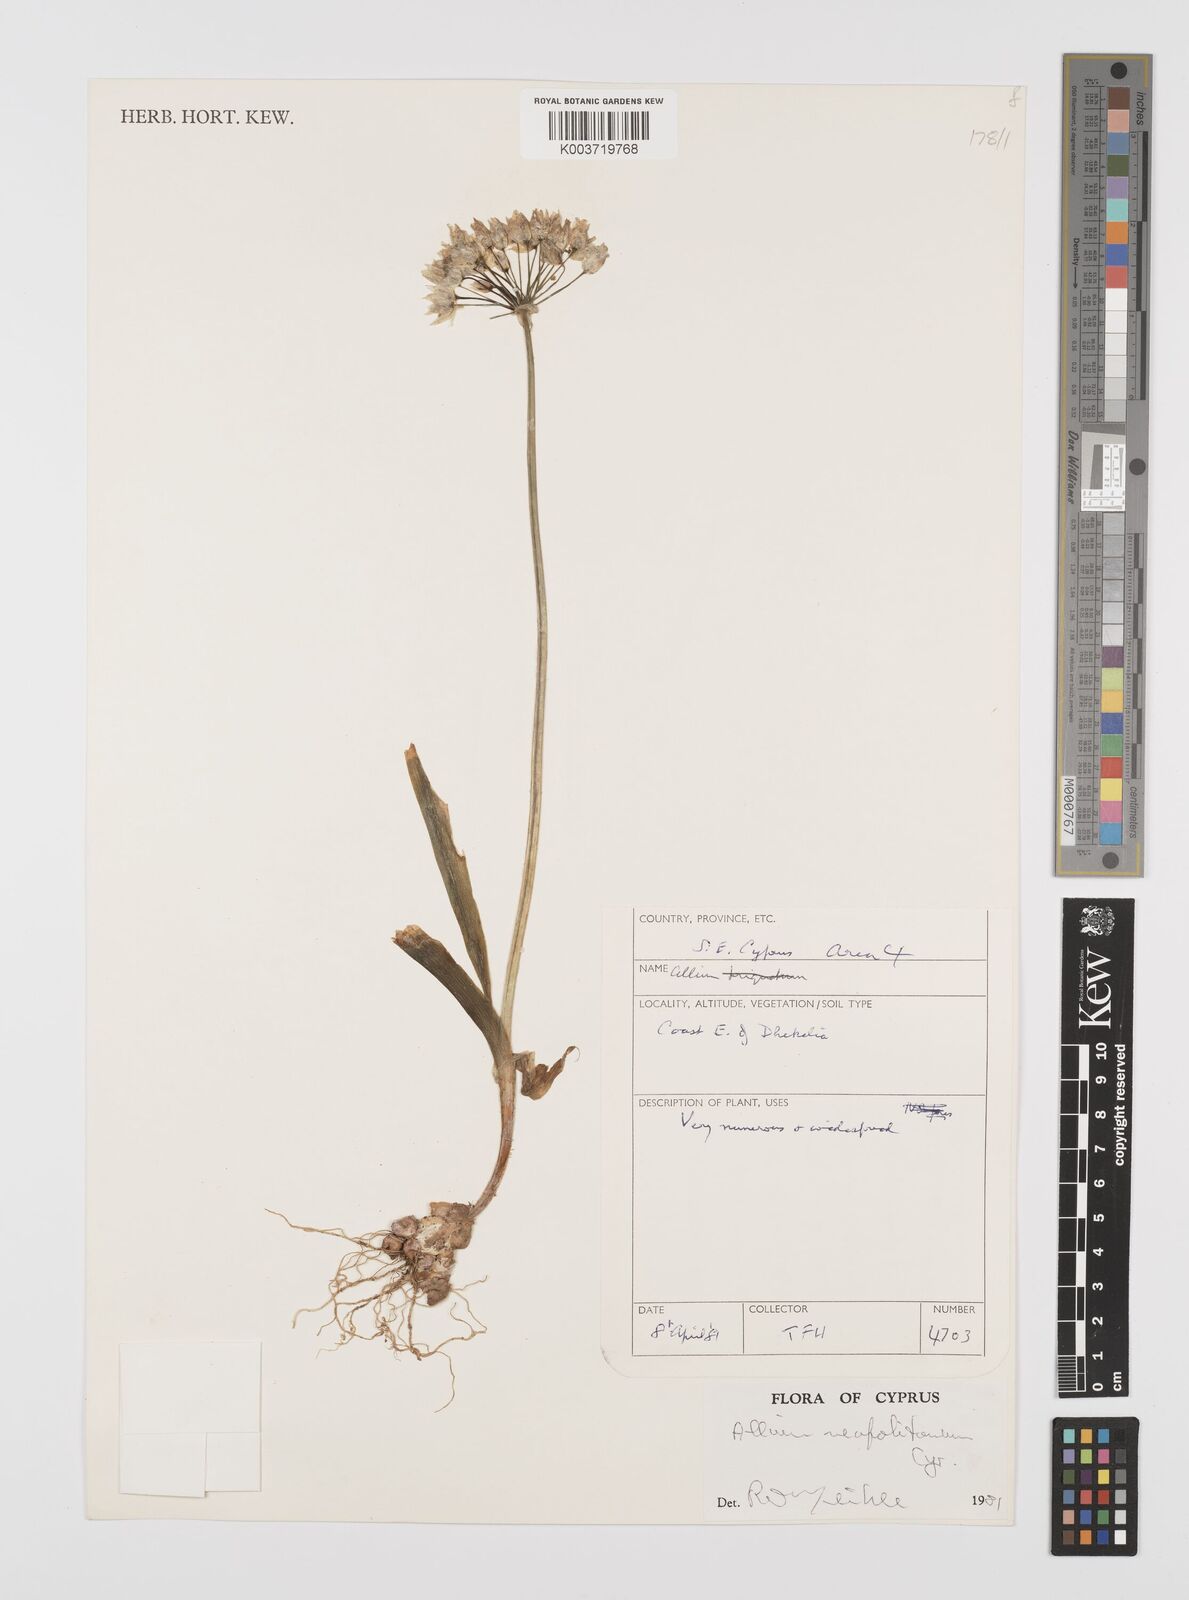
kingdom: Plantae
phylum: Tracheophyta
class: Liliopsida
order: Asparagales
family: Amaryllidaceae
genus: Allium
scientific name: Allium neapolitanum
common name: Neapolitan garlic
